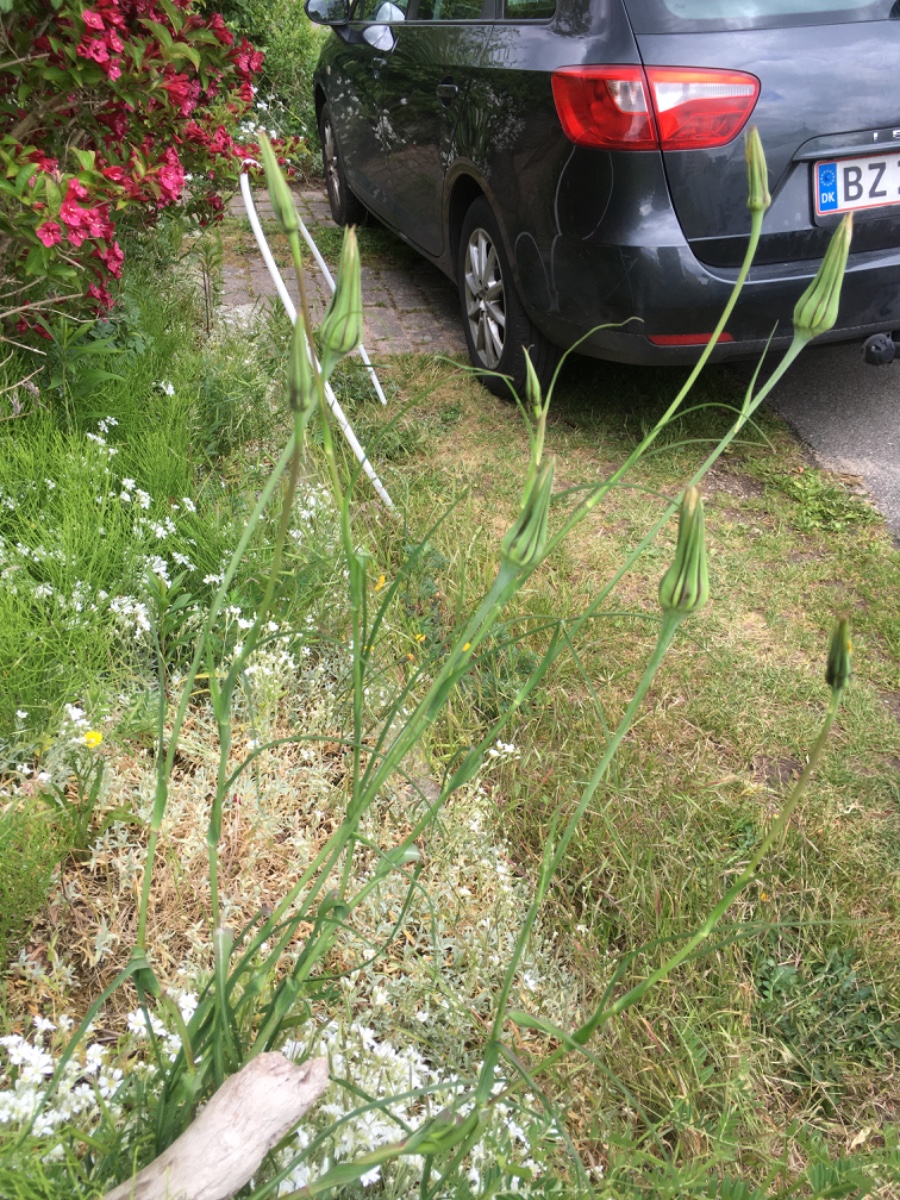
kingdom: Fungi
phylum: Basidiomycota
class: Pucciniomycetes
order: Pucciniales
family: Pucciniaceae
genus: Puccinia
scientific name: Puccinia hysterium
